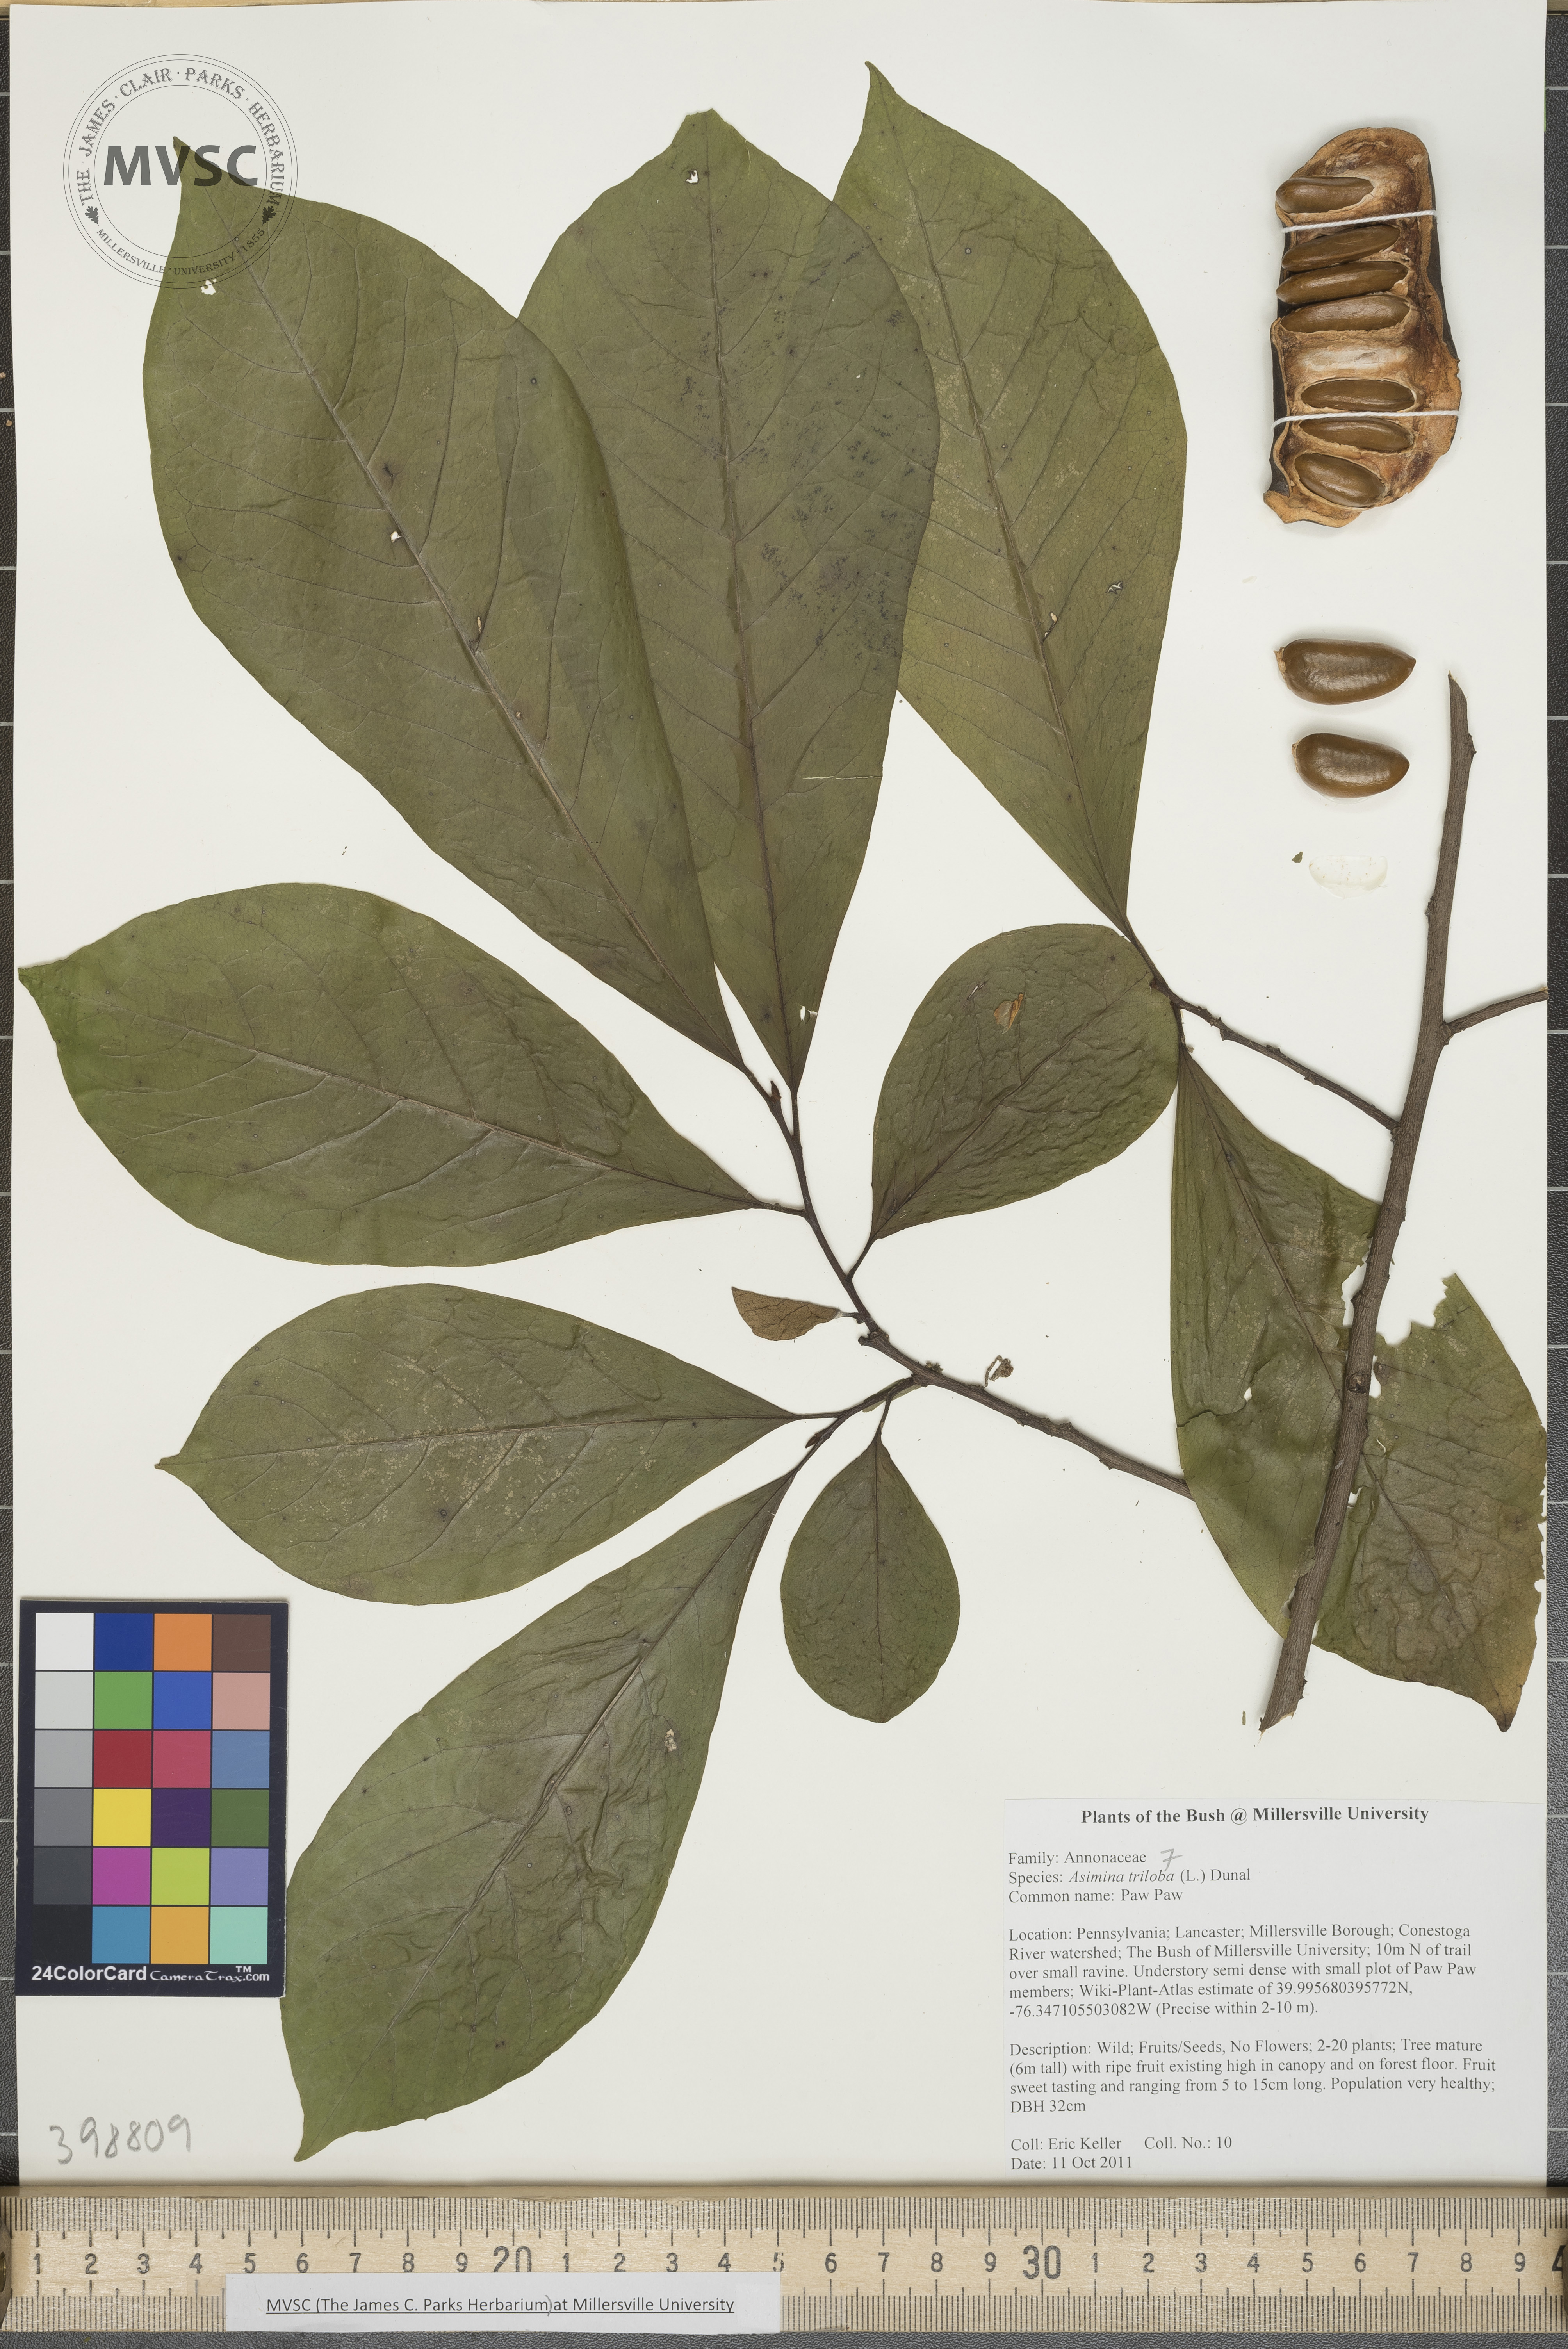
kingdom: Plantae
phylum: Tracheophyta
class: Magnoliopsida
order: Magnoliales
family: Annonaceae
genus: Asimina
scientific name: Asimina triloba
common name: Pawpaw
